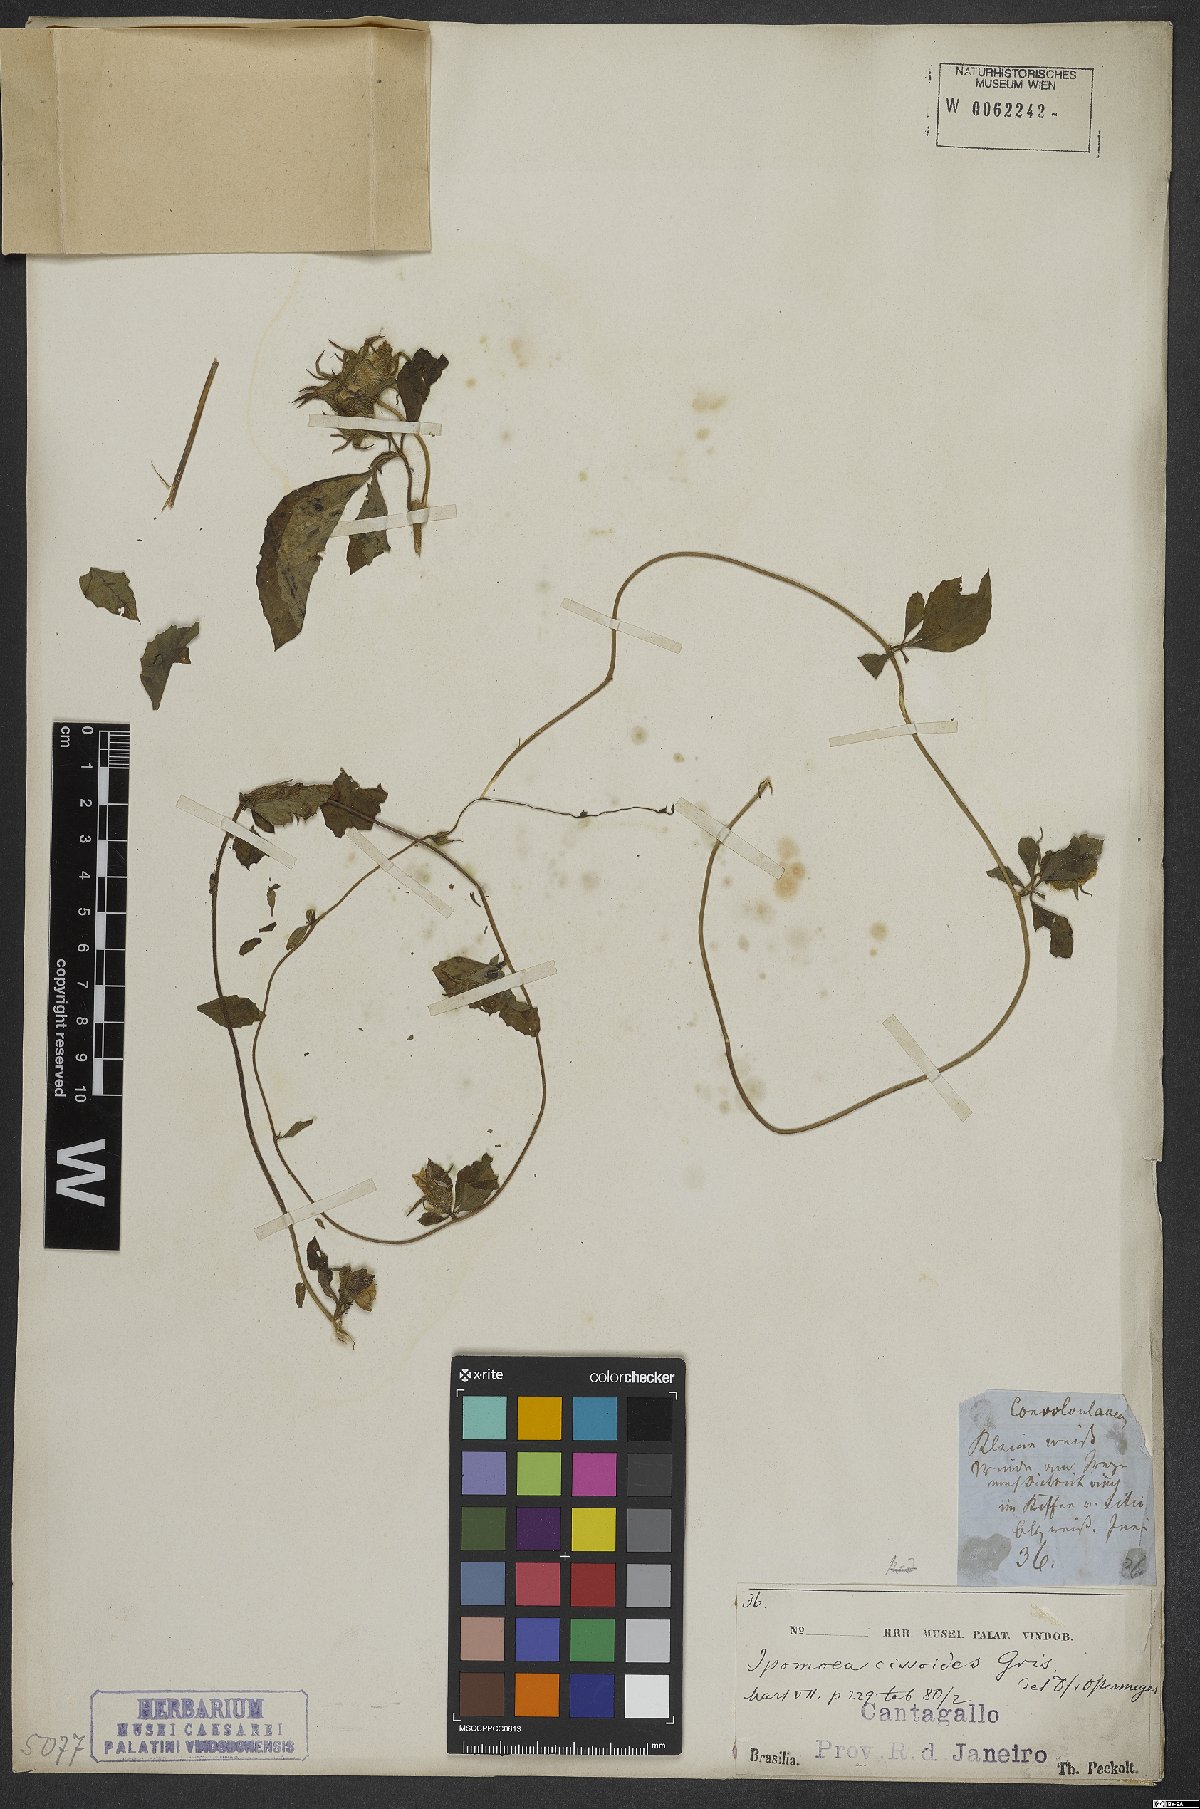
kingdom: Plantae
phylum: Tracheophyta
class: Magnoliopsida
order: Solanales
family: Convolvulaceae
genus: Distimake
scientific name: Distimake cissoides
